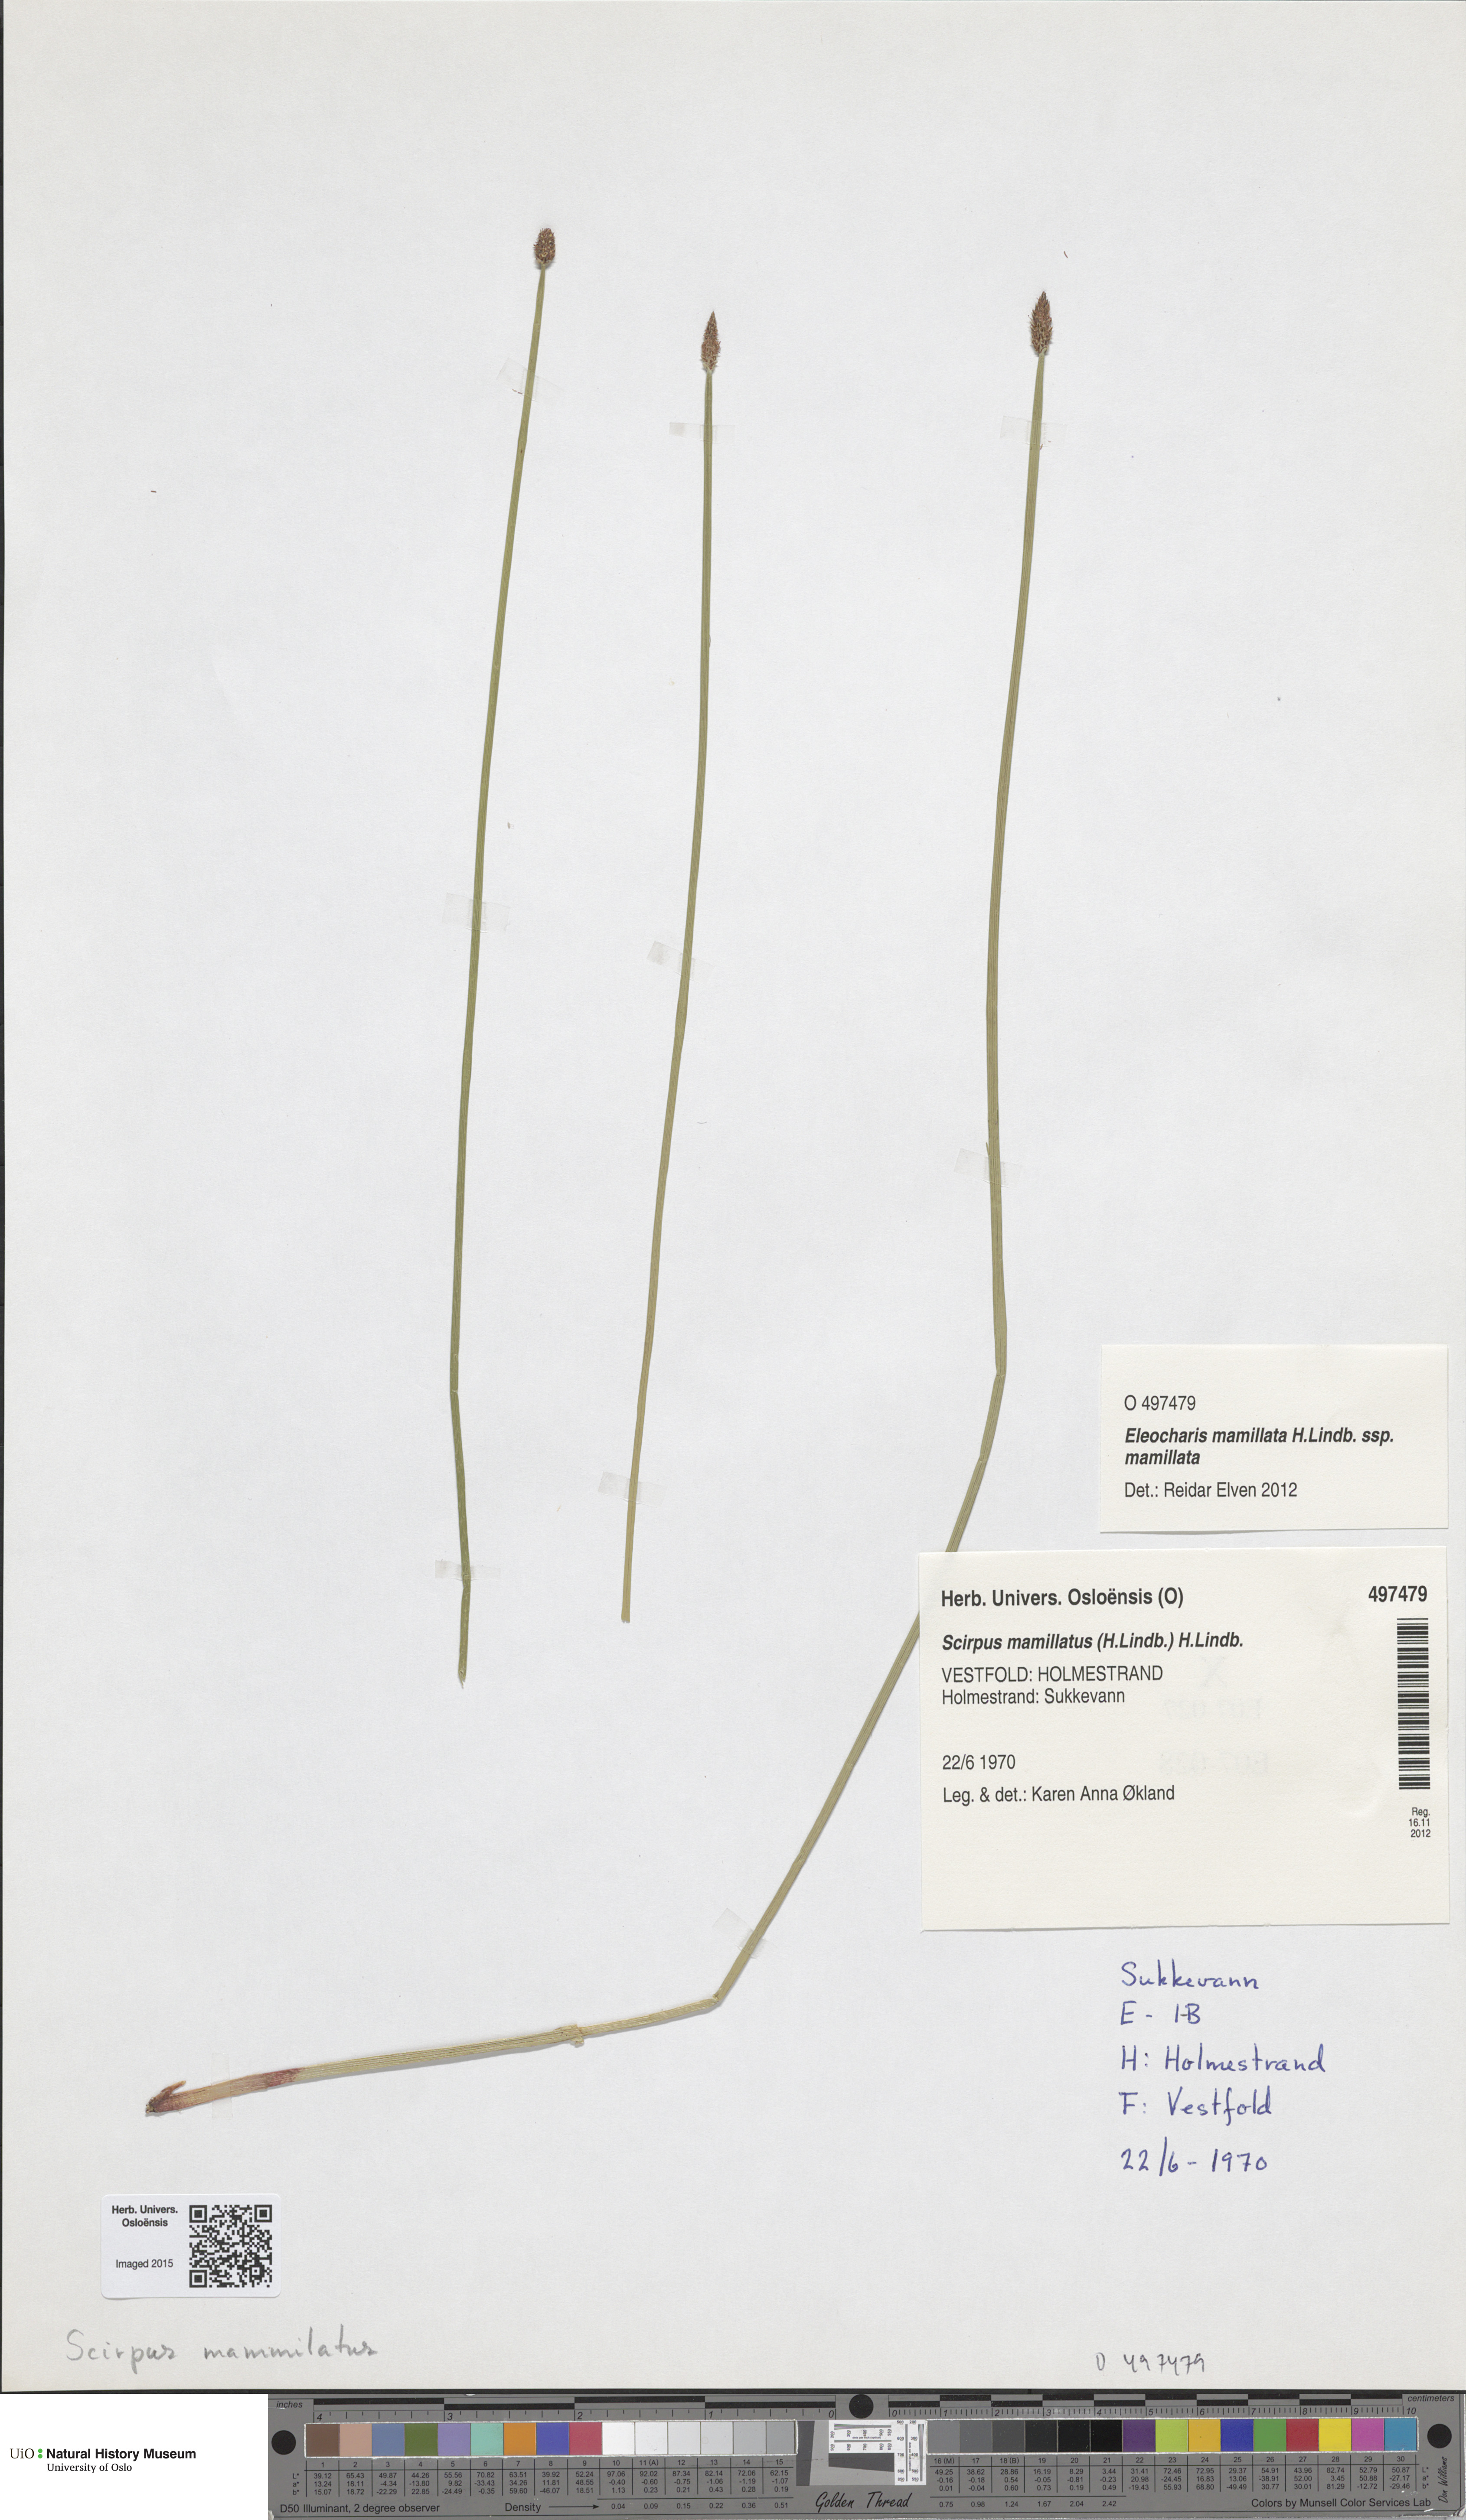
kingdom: Plantae
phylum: Tracheophyta
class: Liliopsida
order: Poales
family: Cyperaceae
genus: Eleocharis
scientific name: Eleocharis mamillata
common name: Northern spike-rush
